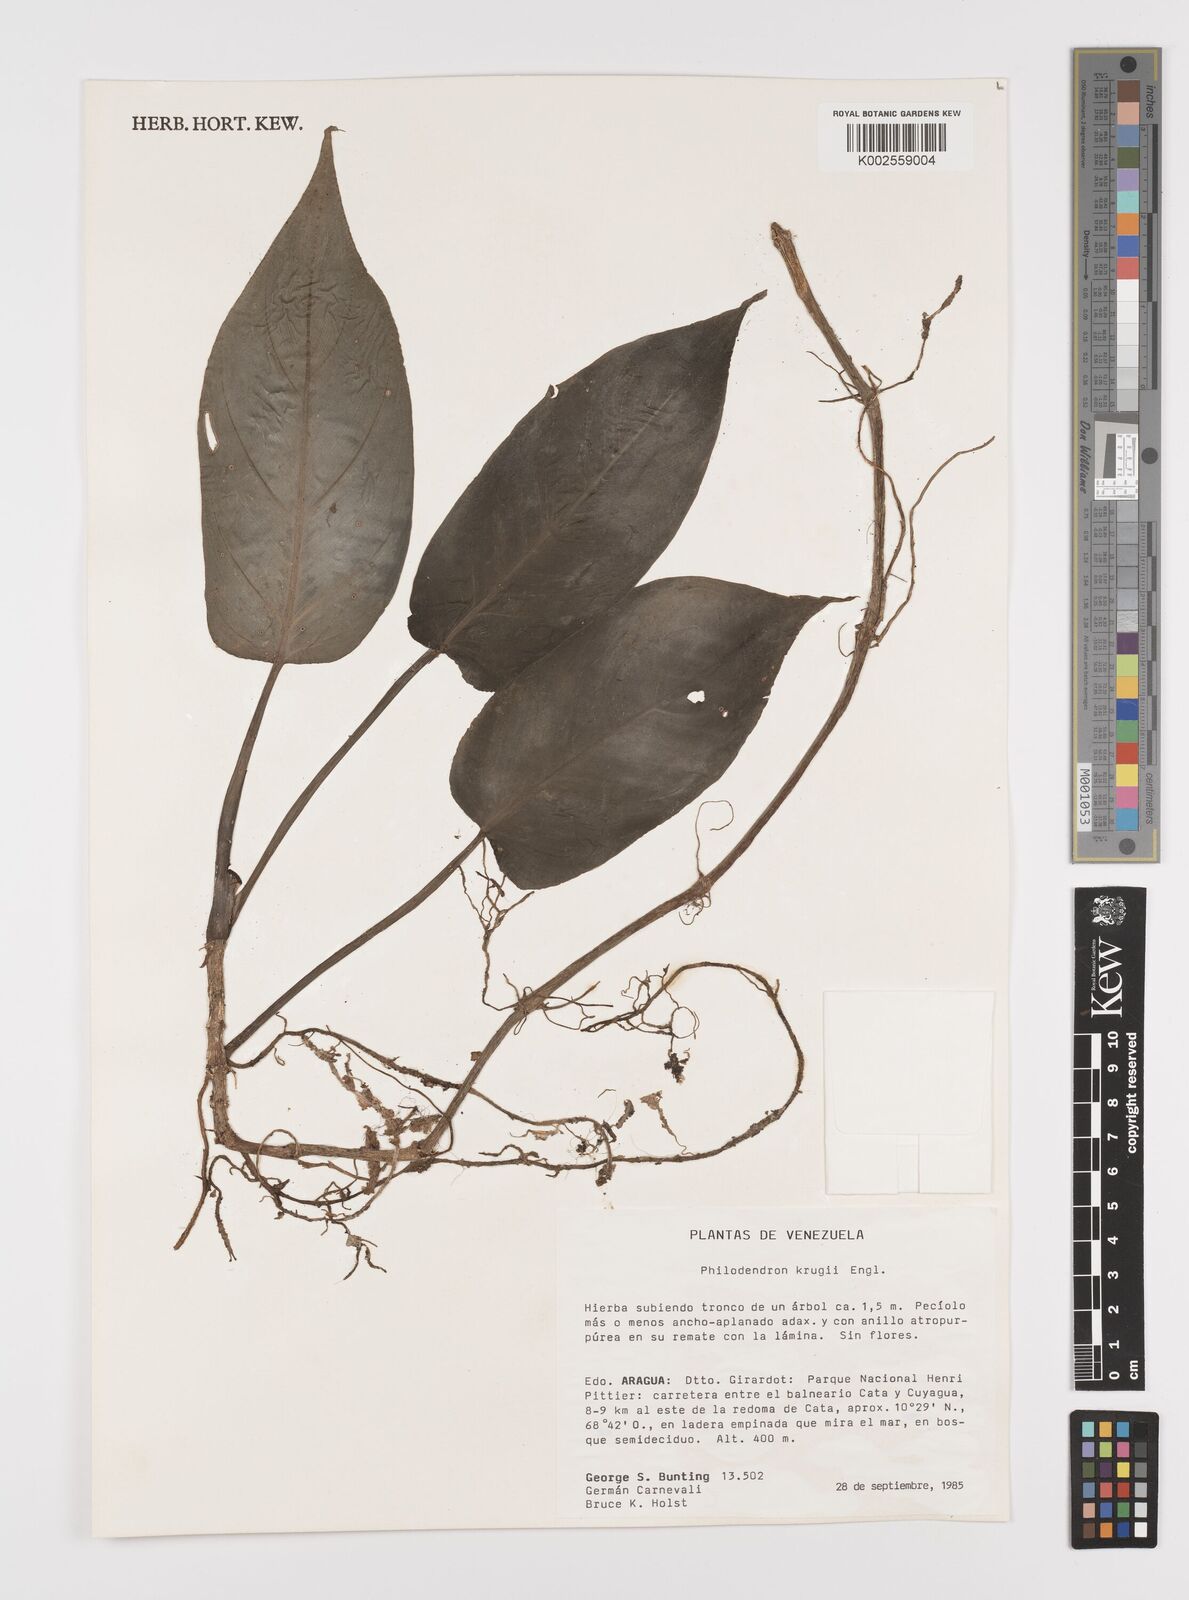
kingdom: Plantae
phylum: Tracheophyta
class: Liliopsida
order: Alismatales
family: Araceae
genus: Philodendron
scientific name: Philodendron krugii
